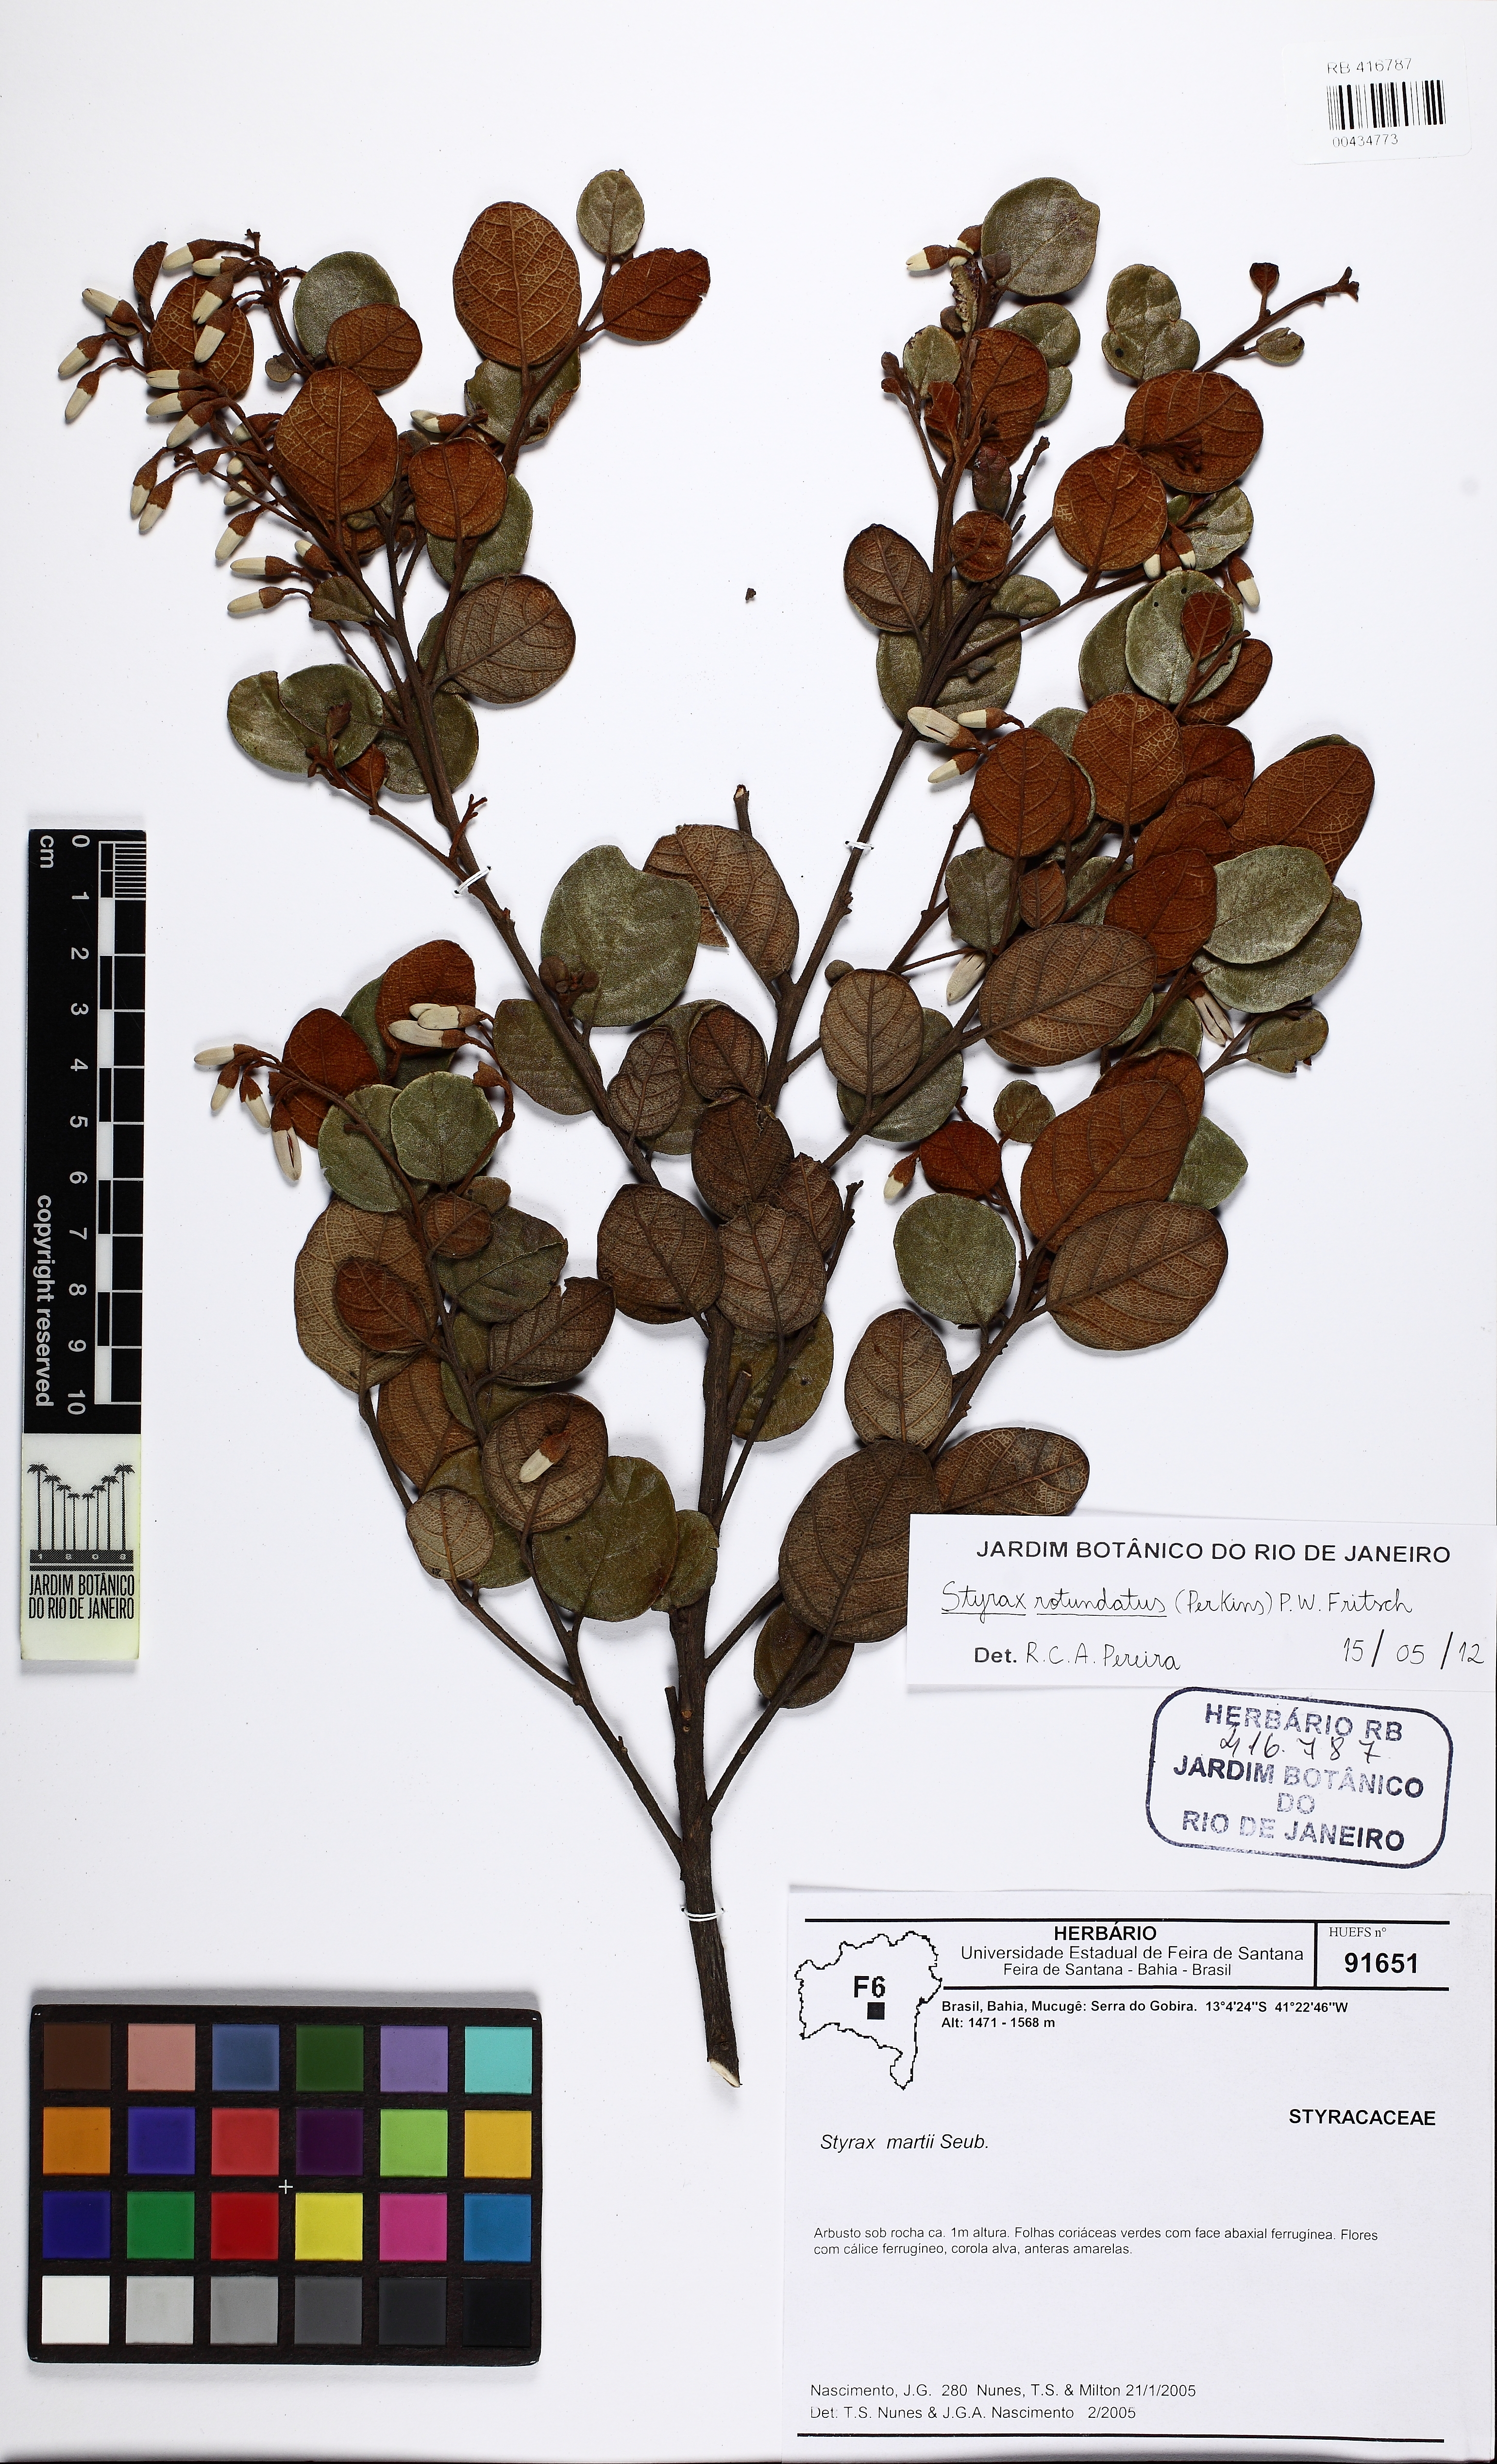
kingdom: Plantae
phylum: Tracheophyta
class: Magnoliopsida
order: Ericales
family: Styracaceae
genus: Styrax
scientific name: Styrax martii
